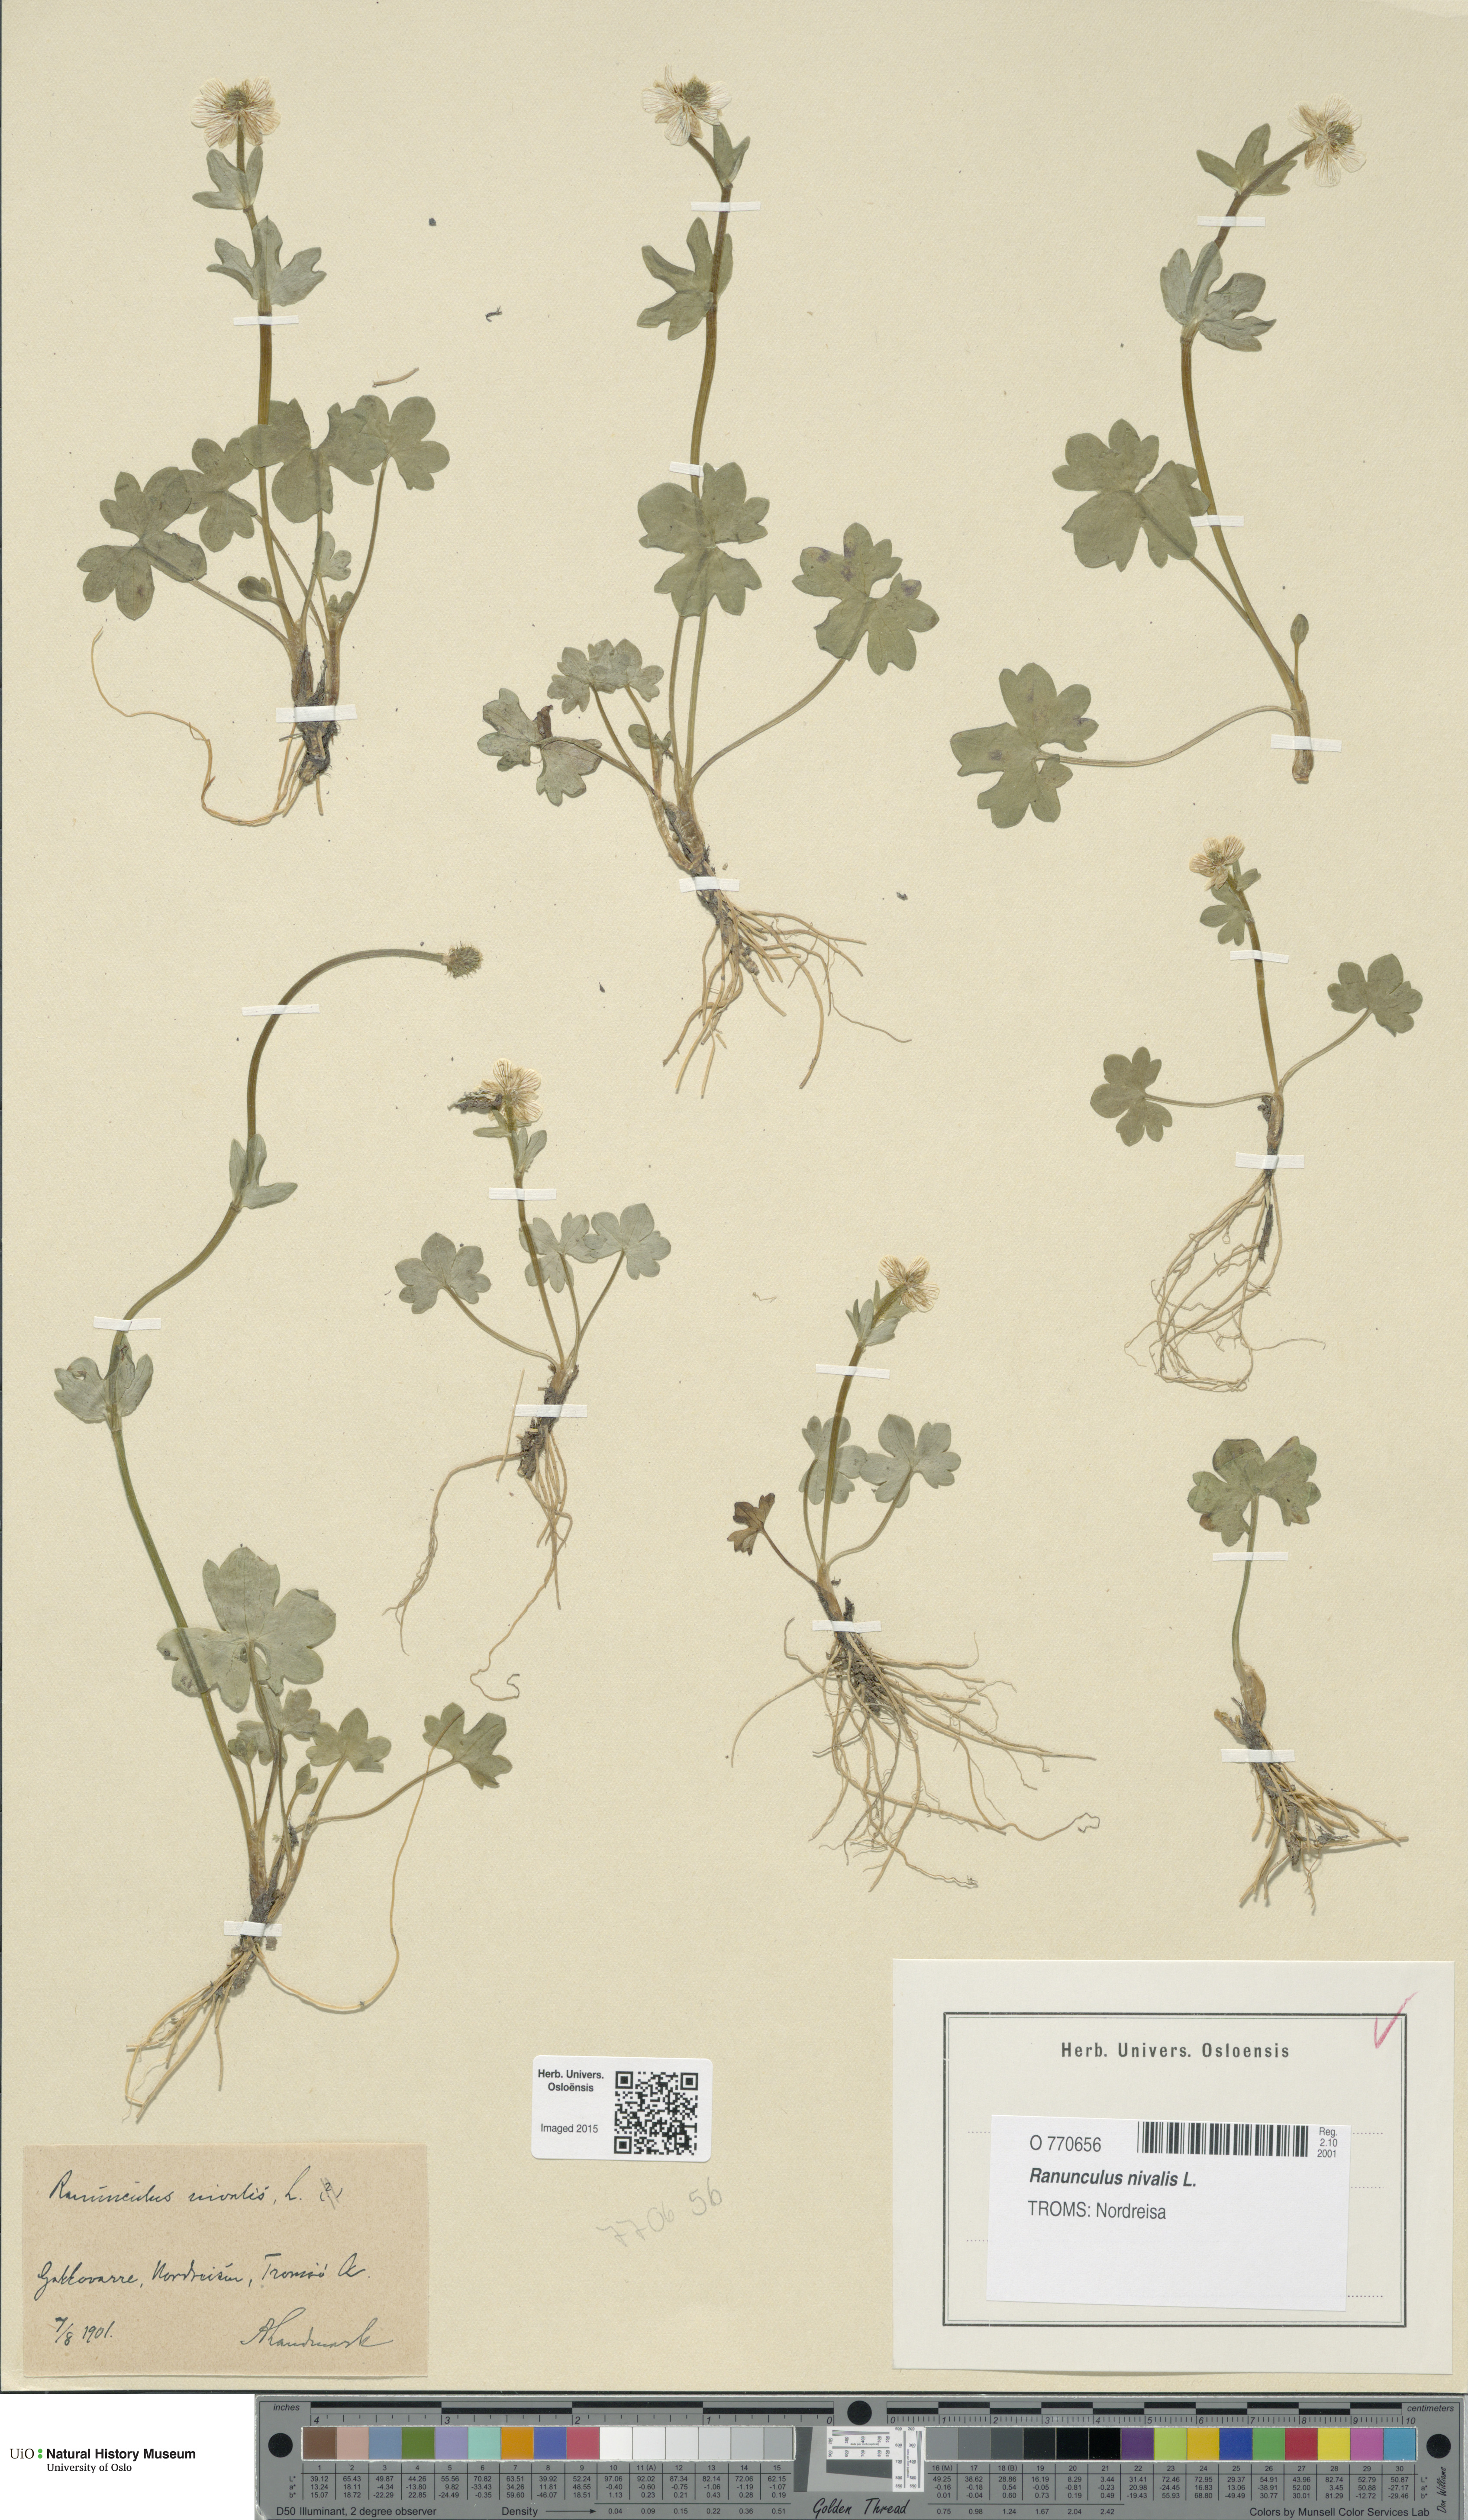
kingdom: Plantae
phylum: Tracheophyta
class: Magnoliopsida
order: Ranunculales
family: Ranunculaceae
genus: Ranunculus
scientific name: Ranunculus nivalis
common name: Snow buttercup
